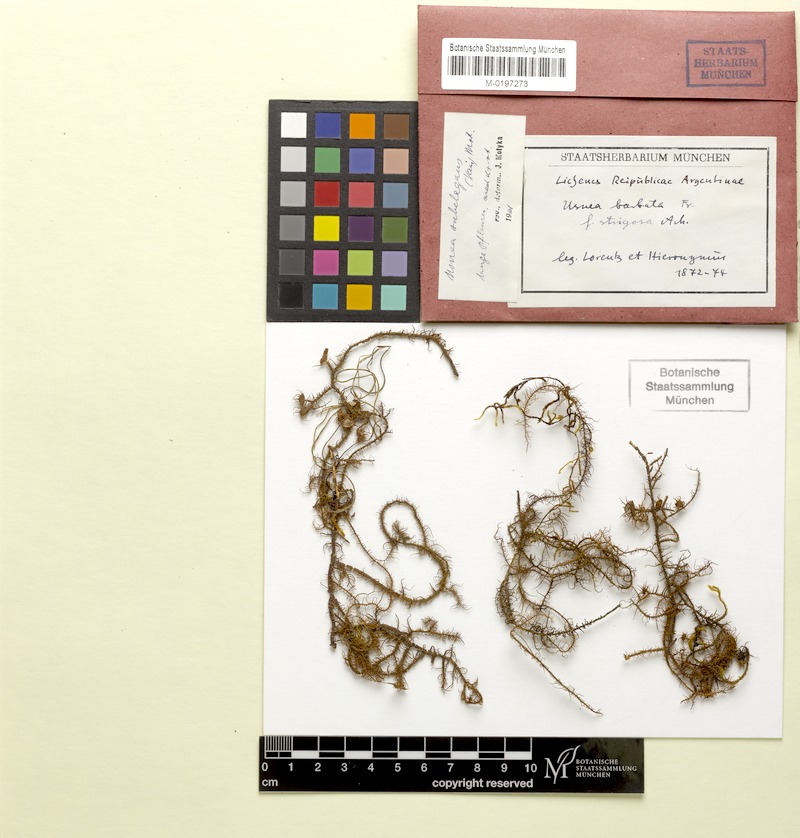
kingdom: Fungi
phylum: Ascomycota
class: Lecanoromycetes
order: Lecanorales
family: Parmeliaceae
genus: Usnea
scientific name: Usnea subelegans
